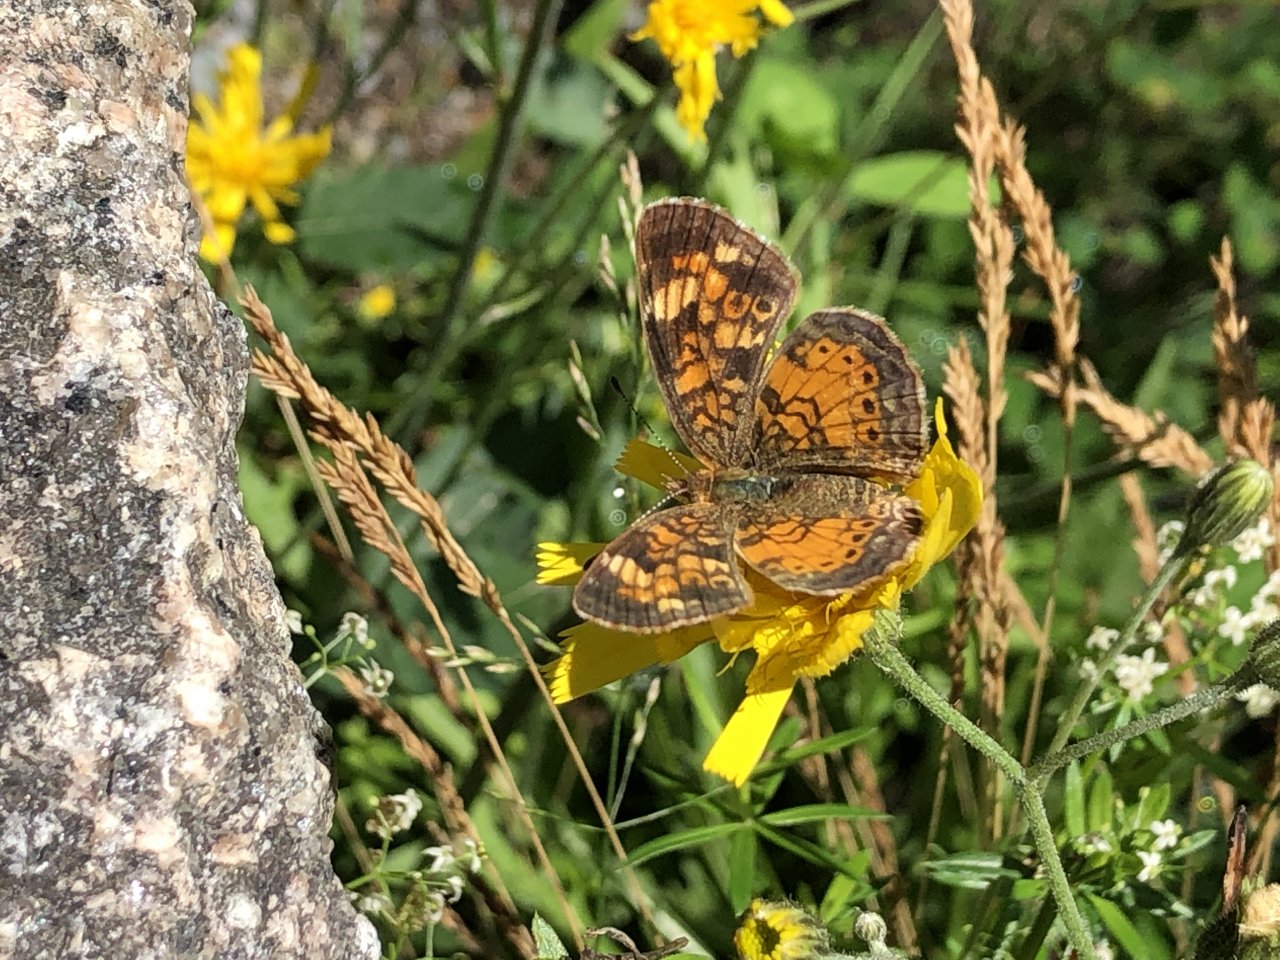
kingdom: Animalia
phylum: Arthropoda
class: Insecta
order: Lepidoptera
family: Nymphalidae
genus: Phyciodes
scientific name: Phyciodes
